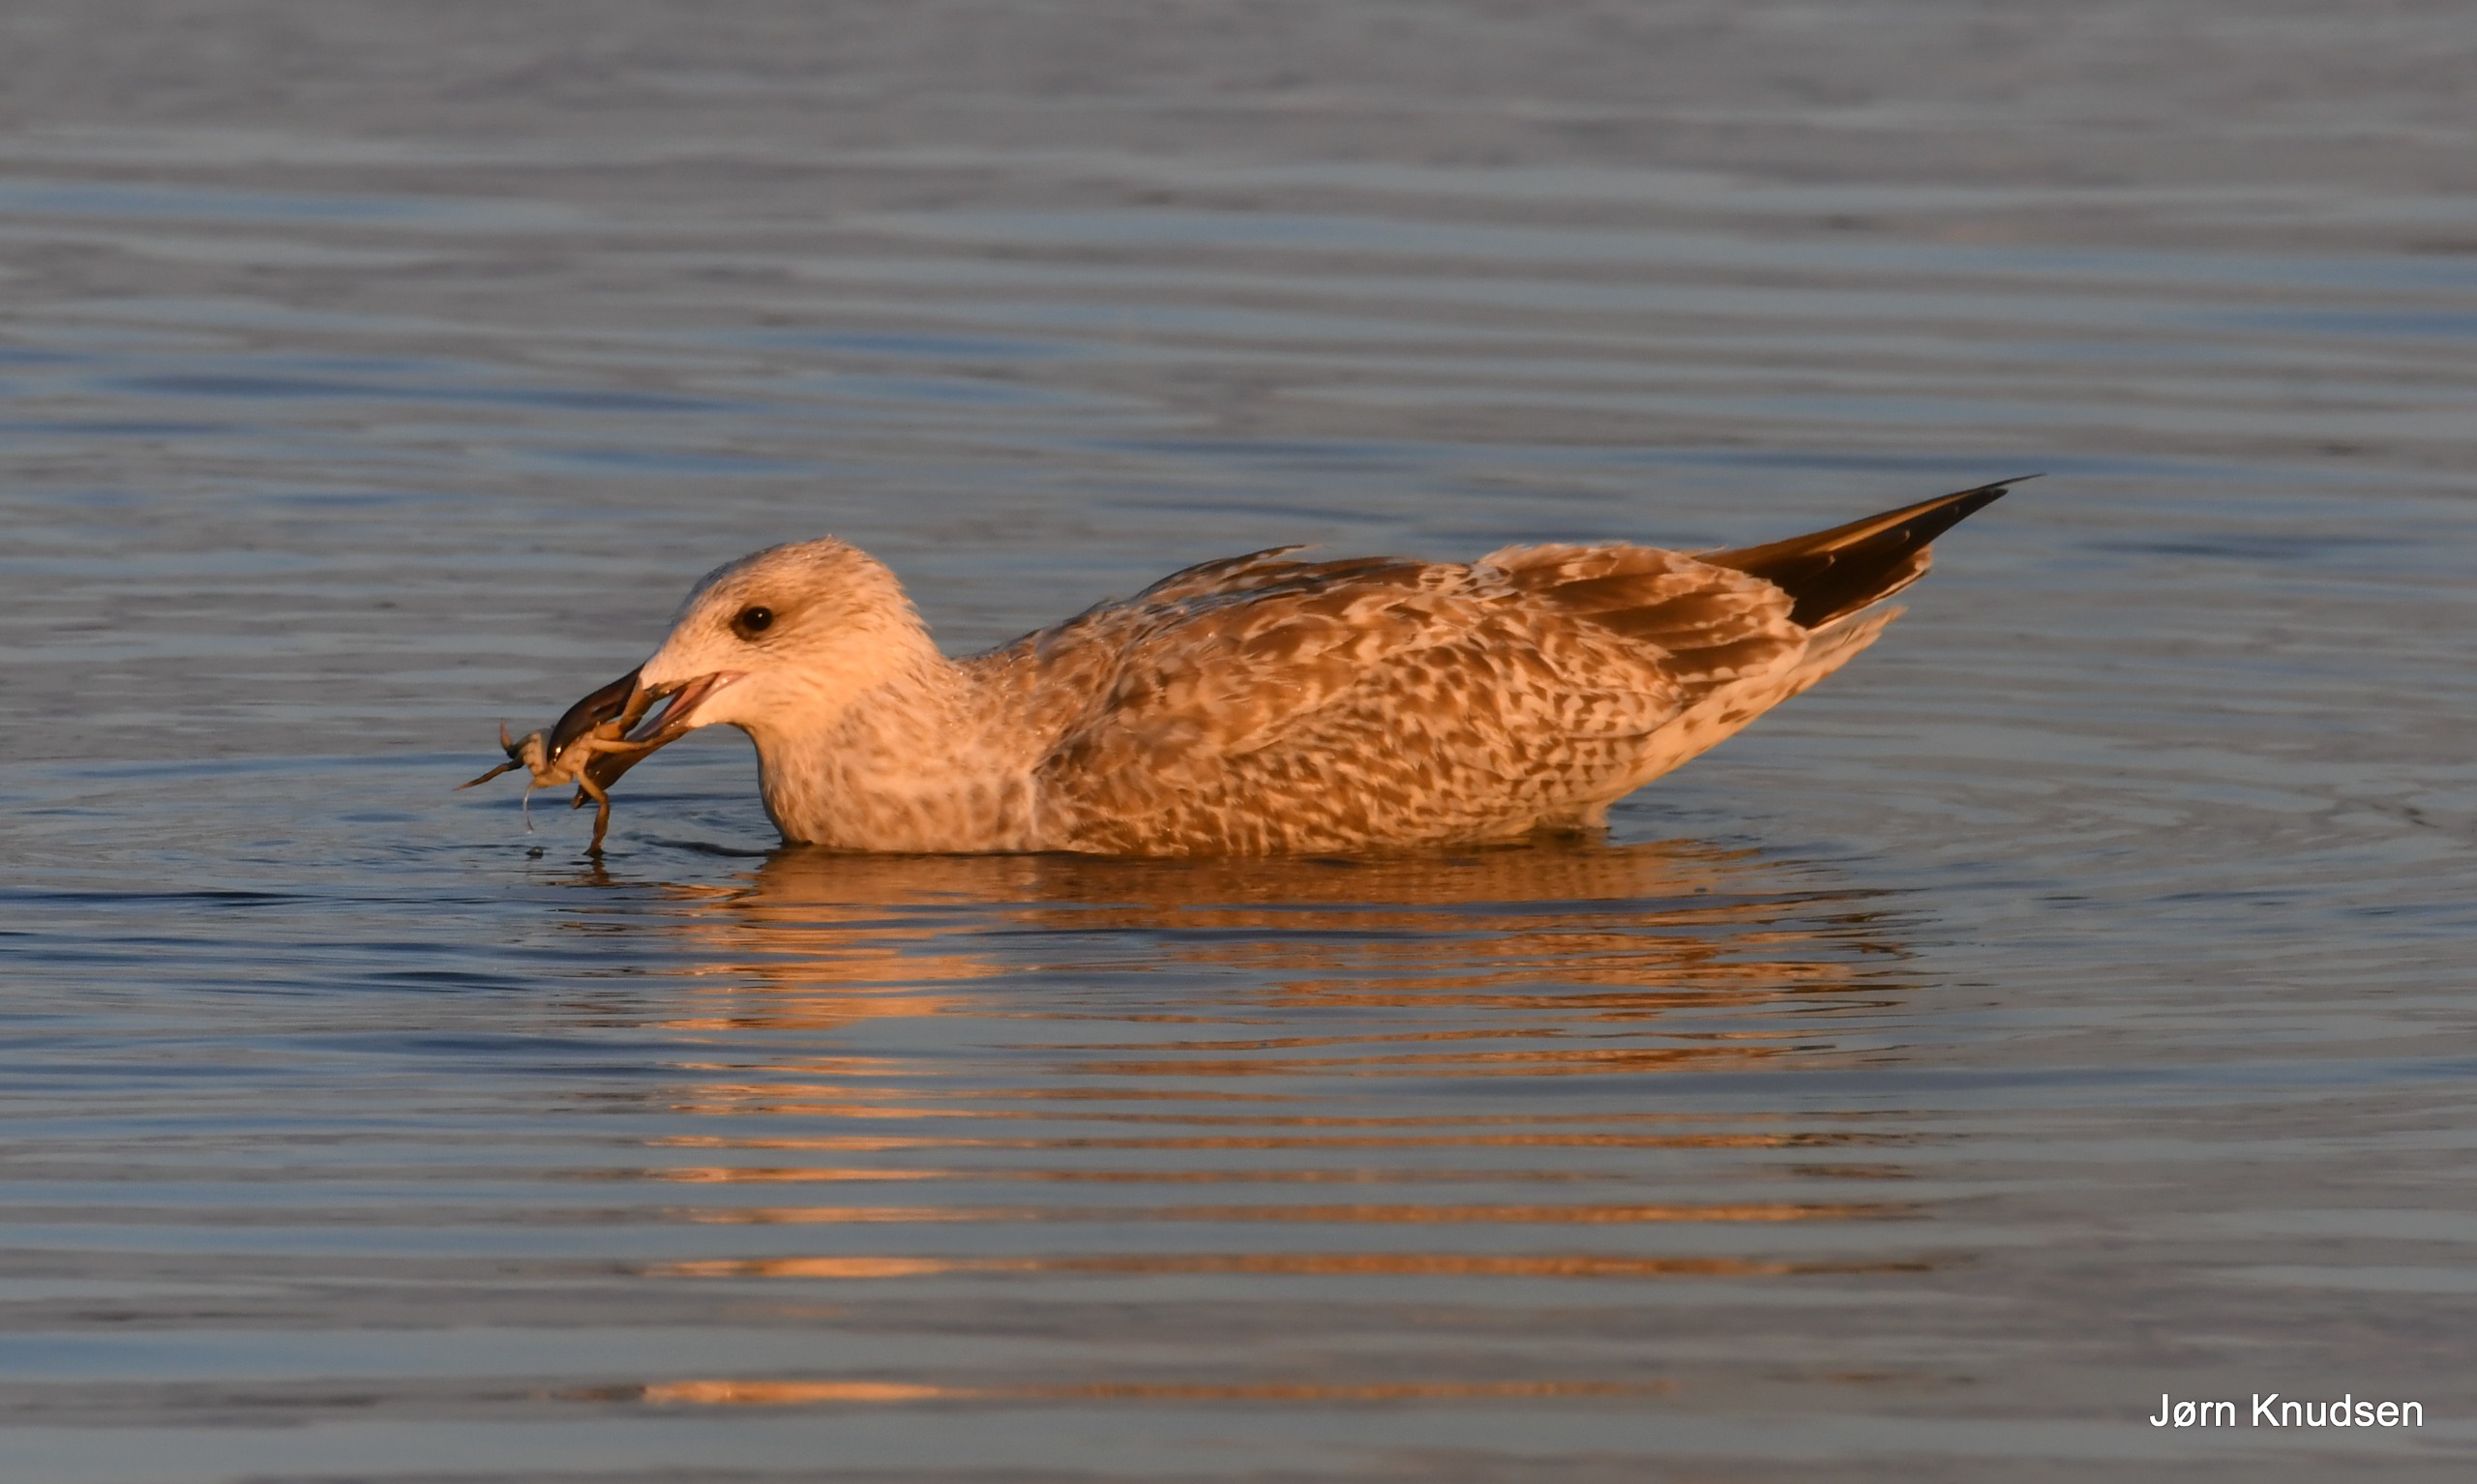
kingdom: Animalia
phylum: Chordata
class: Aves
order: Charadriiformes
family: Laridae
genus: Larus
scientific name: Larus argentatus
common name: Sølvmåge
